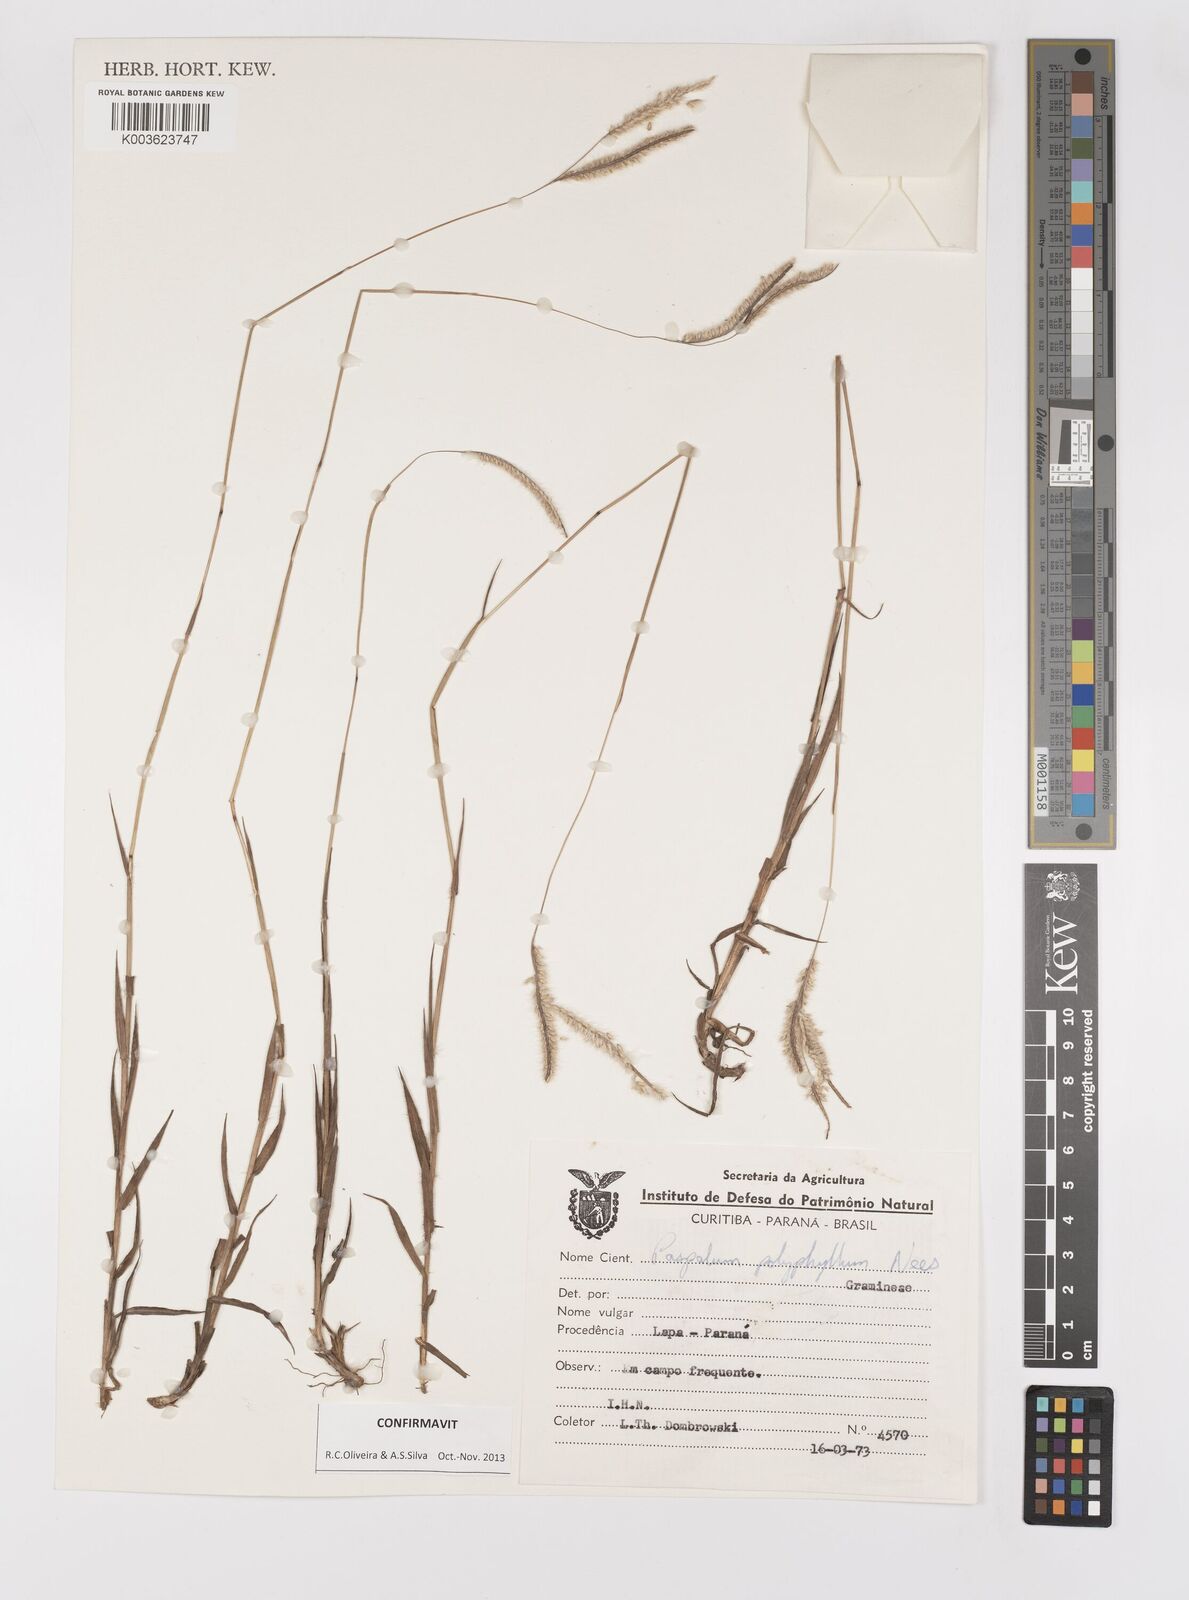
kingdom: Plantae
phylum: Tracheophyta
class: Liliopsida
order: Poales
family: Poaceae
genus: Paspalum
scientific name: Paspalum polyphyllum
